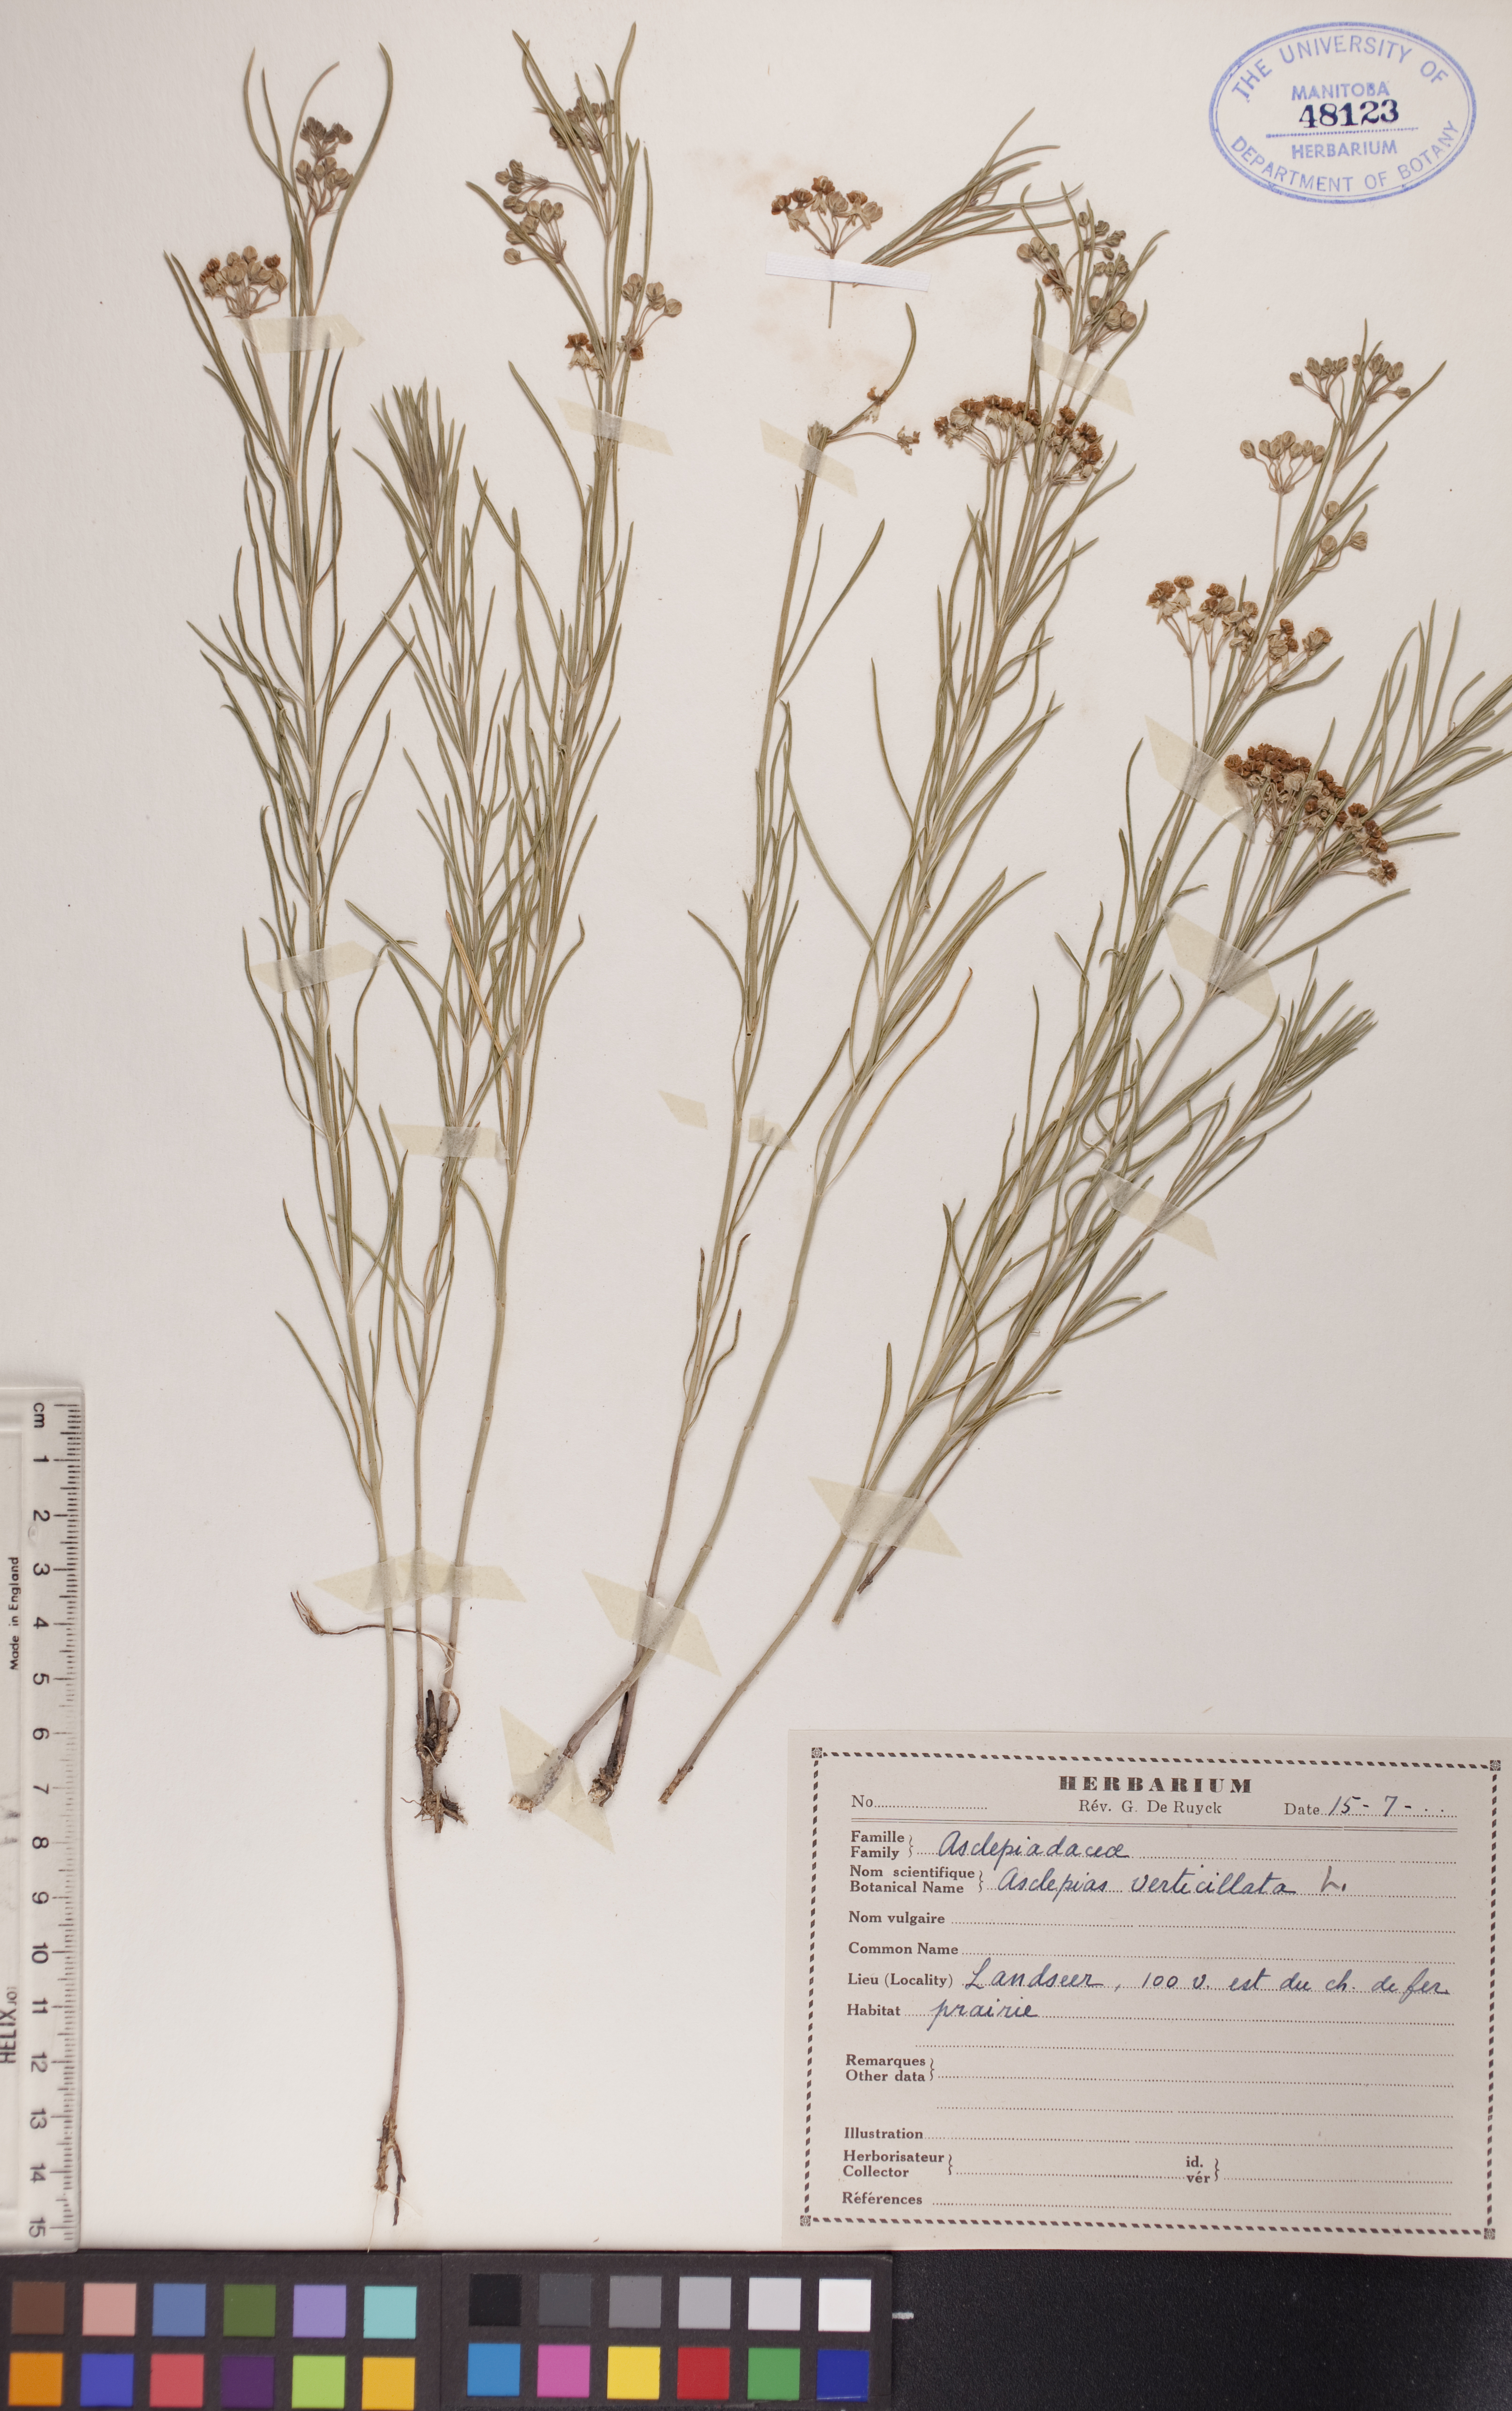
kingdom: Plantae
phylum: Tracheophyta
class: Magnoliopsida
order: Gentianales
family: Apocynaceae
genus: Asclepias
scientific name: Asclepias verticillata
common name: Eastern whorled milkweed
